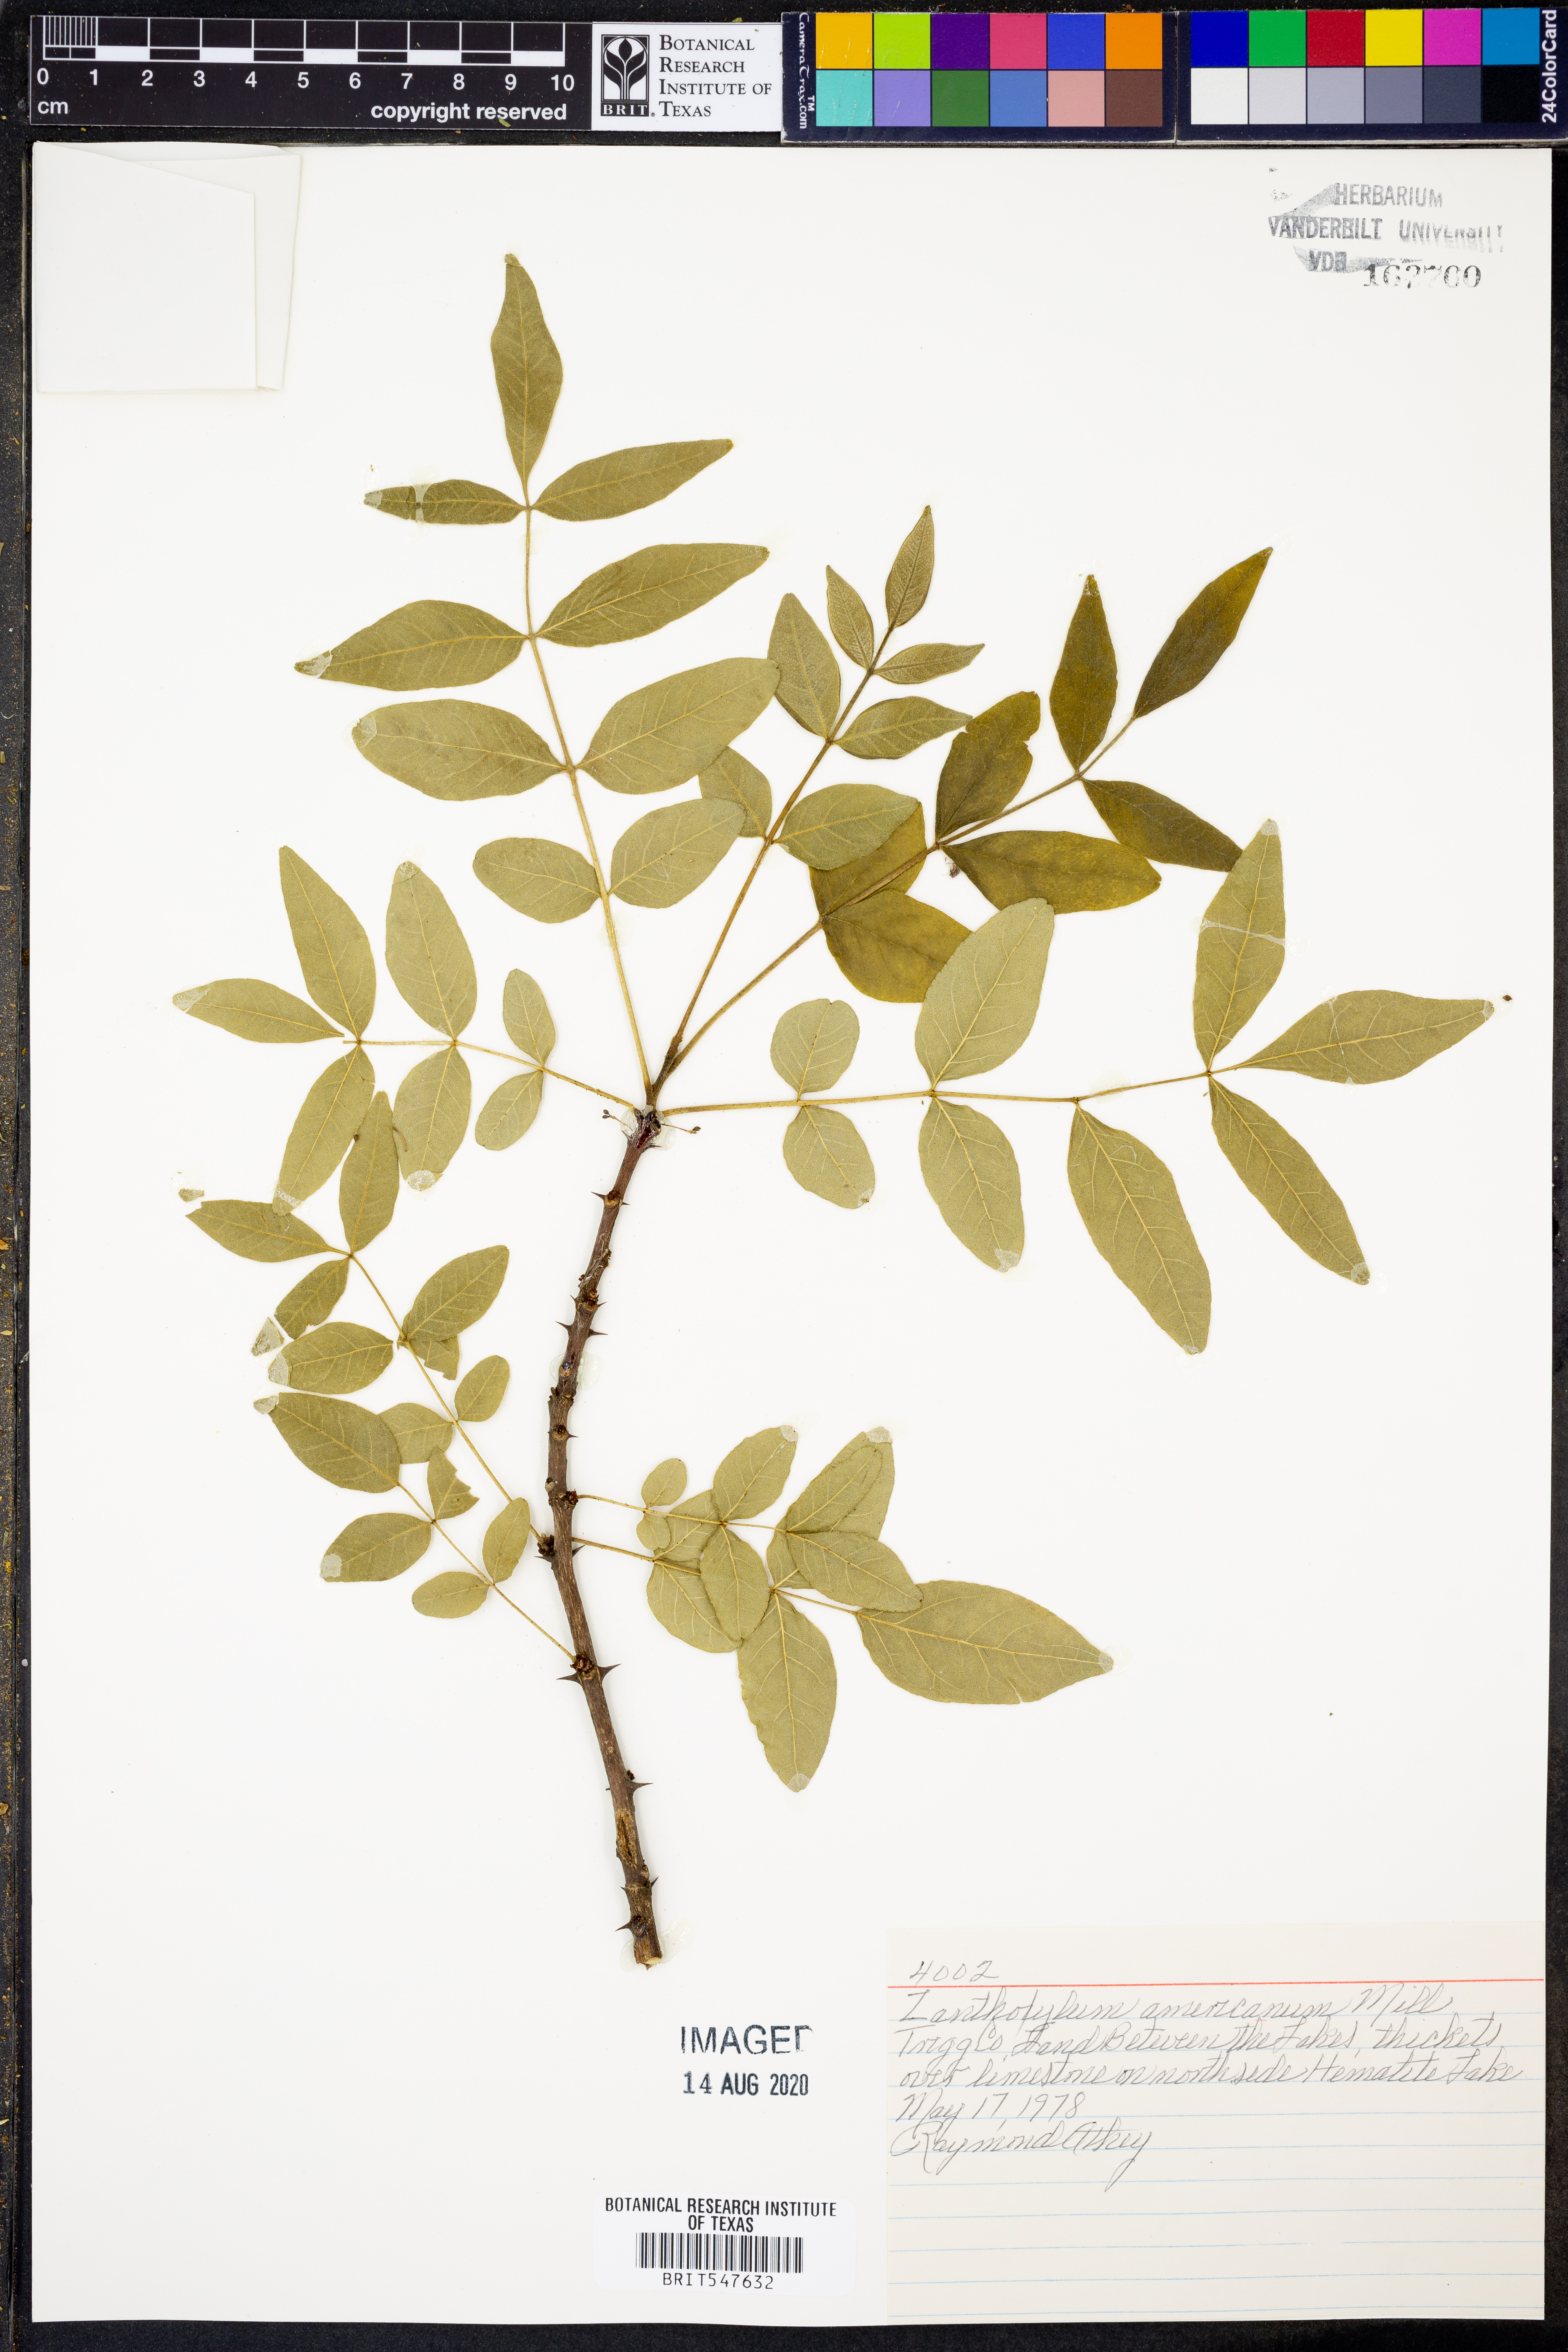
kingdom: Plantae
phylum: Tracheophyta
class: Magnoliopsida
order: Sapindales
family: Rutaceae
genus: Zanthoxylum
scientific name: Zanthoxylum americanum
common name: Northern prickly-ash
